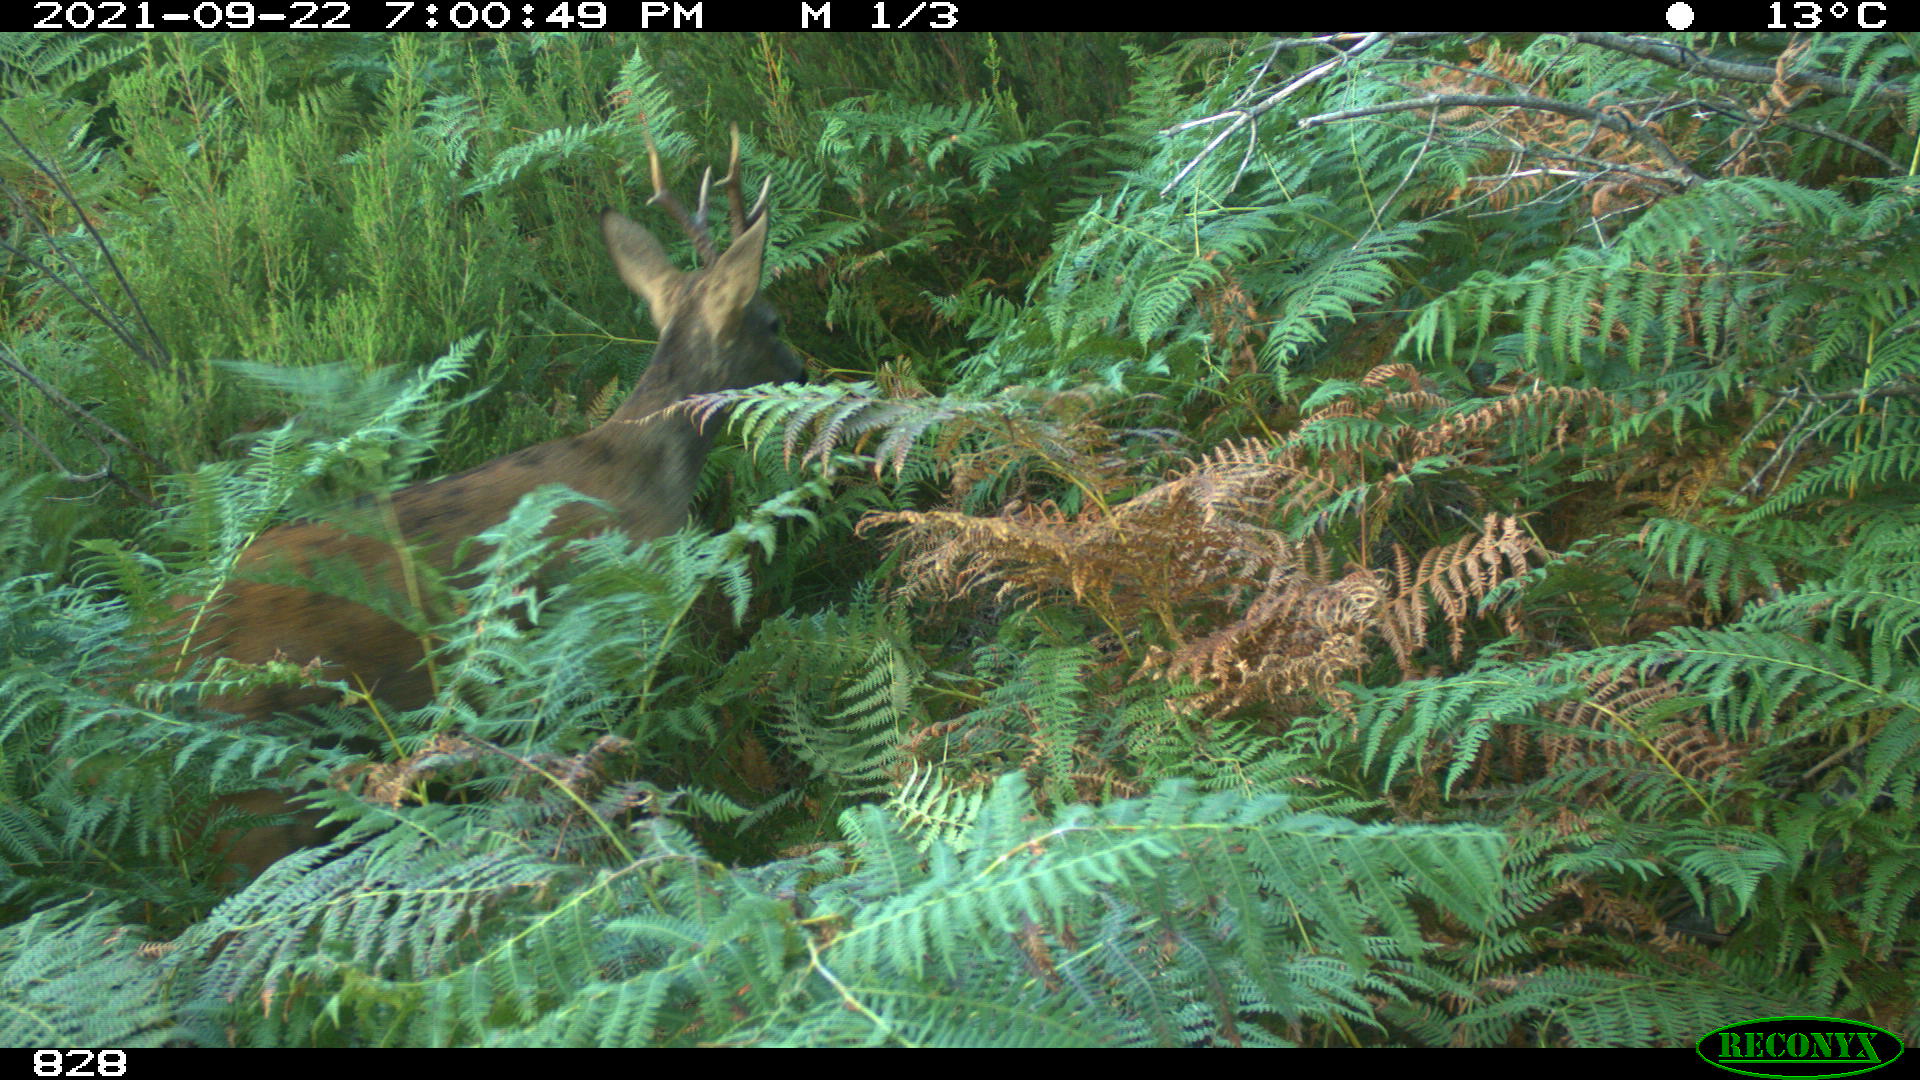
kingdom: Animalia
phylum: Chordata
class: Mammalia
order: Artiodactyla
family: Cervidae
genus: Capreolus
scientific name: Capreolus capreolus
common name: Western roe deer
